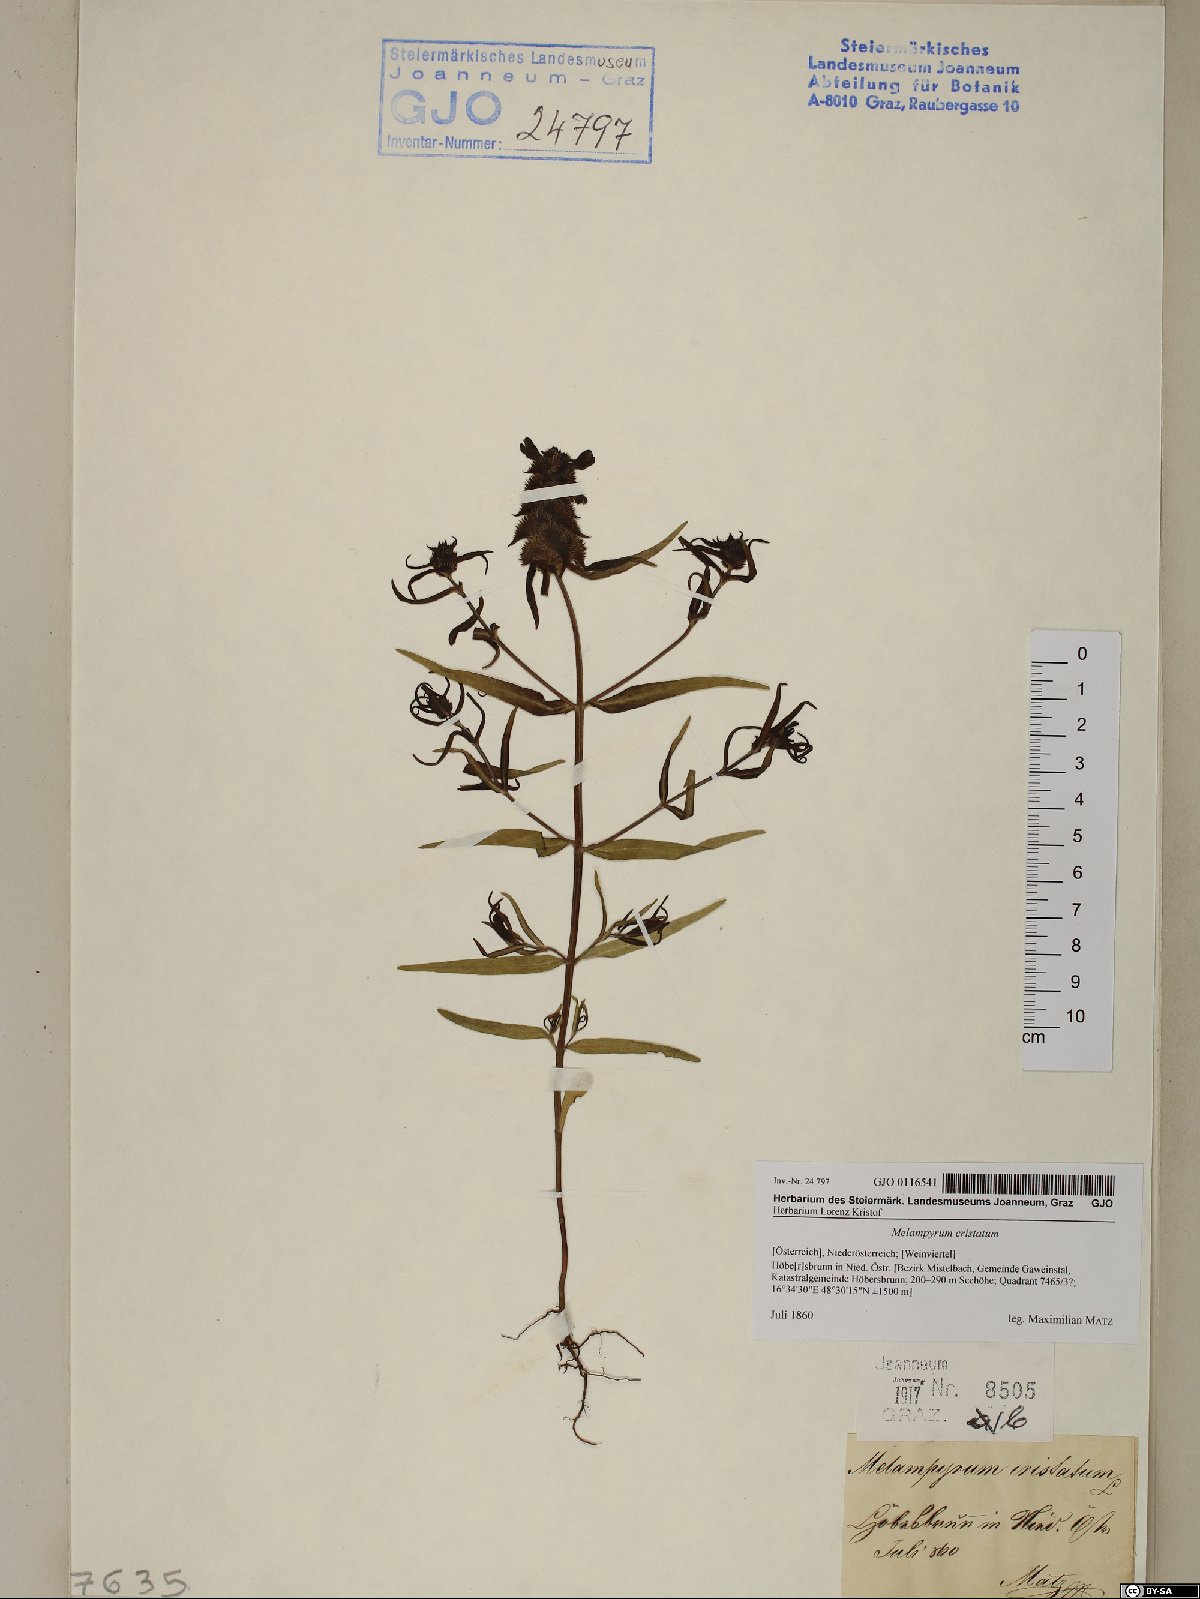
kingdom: Plantae
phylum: Tracheophyta
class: Magnoliopsida
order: Lamiales
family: Orobanchaceae
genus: Melampyrum
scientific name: Melampyrum cristatum
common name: Crested cow-wheat
